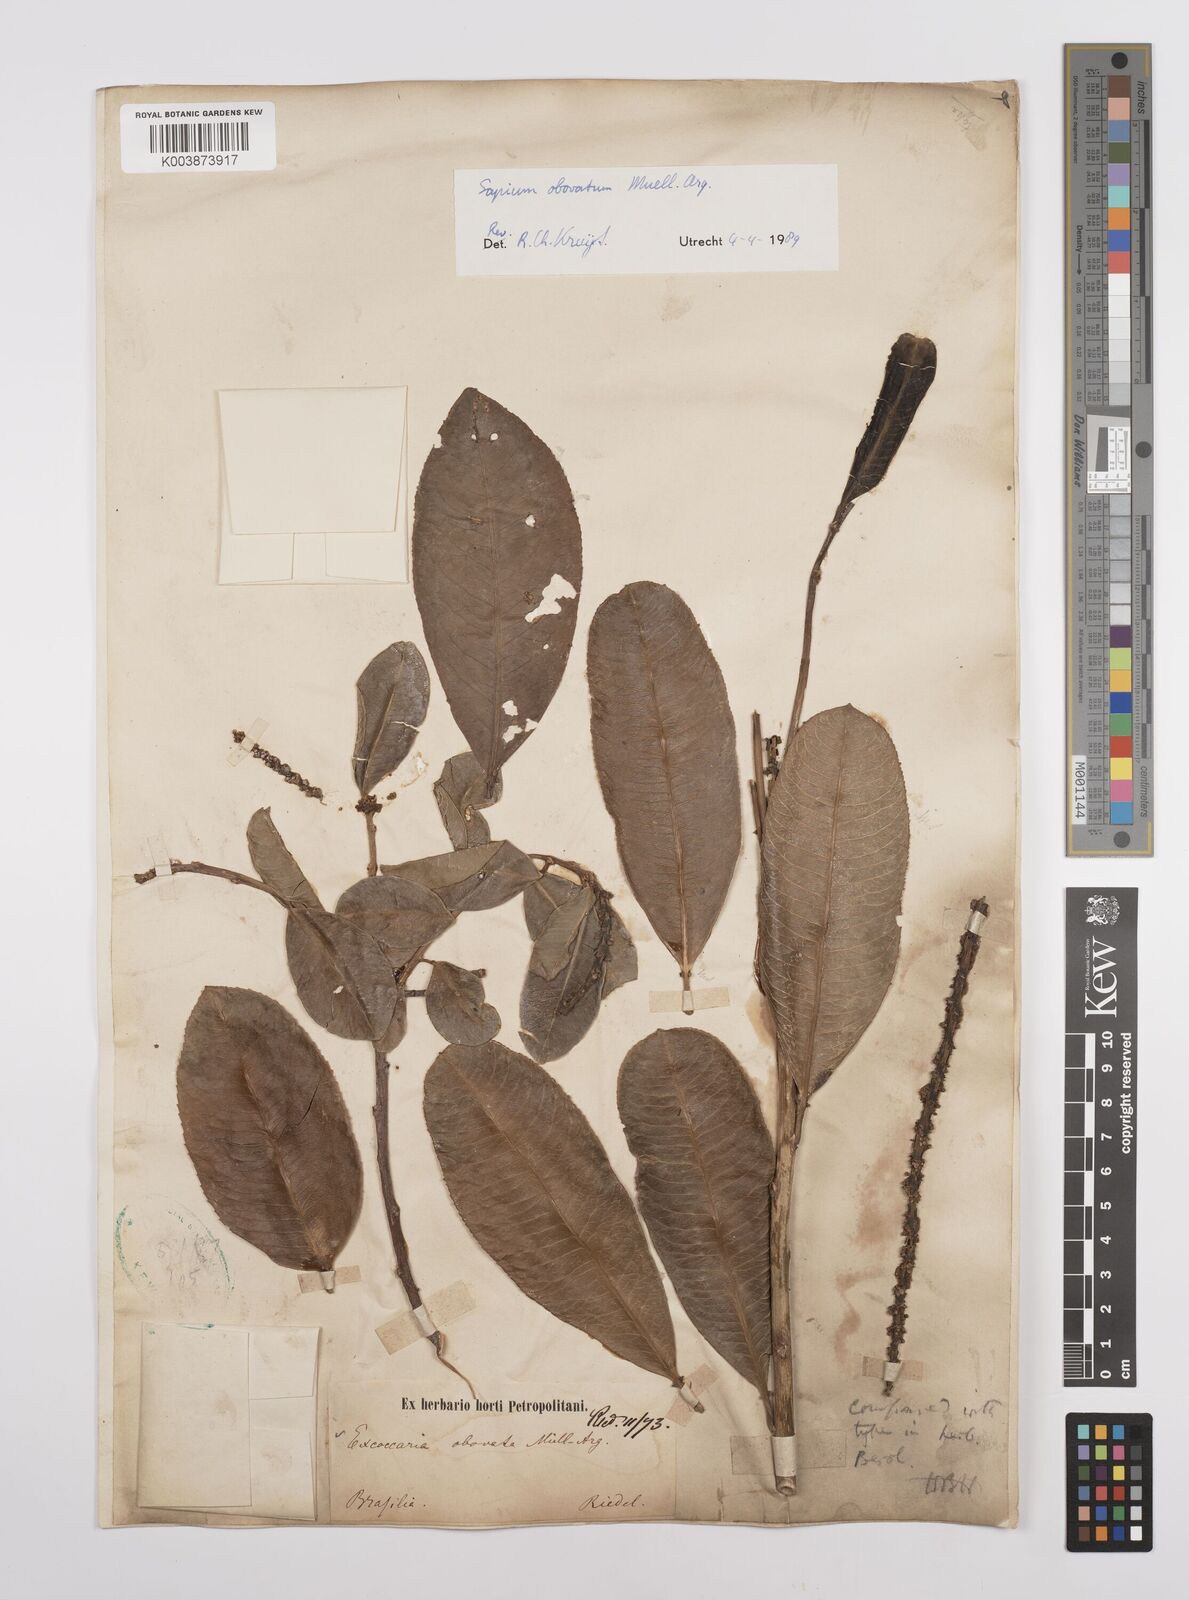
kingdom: Plantae
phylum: Tracheophyta
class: Magnoliopsida
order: Malpighiales
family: Euphorbiaceae
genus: Sapium
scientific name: Sapium obovatum
